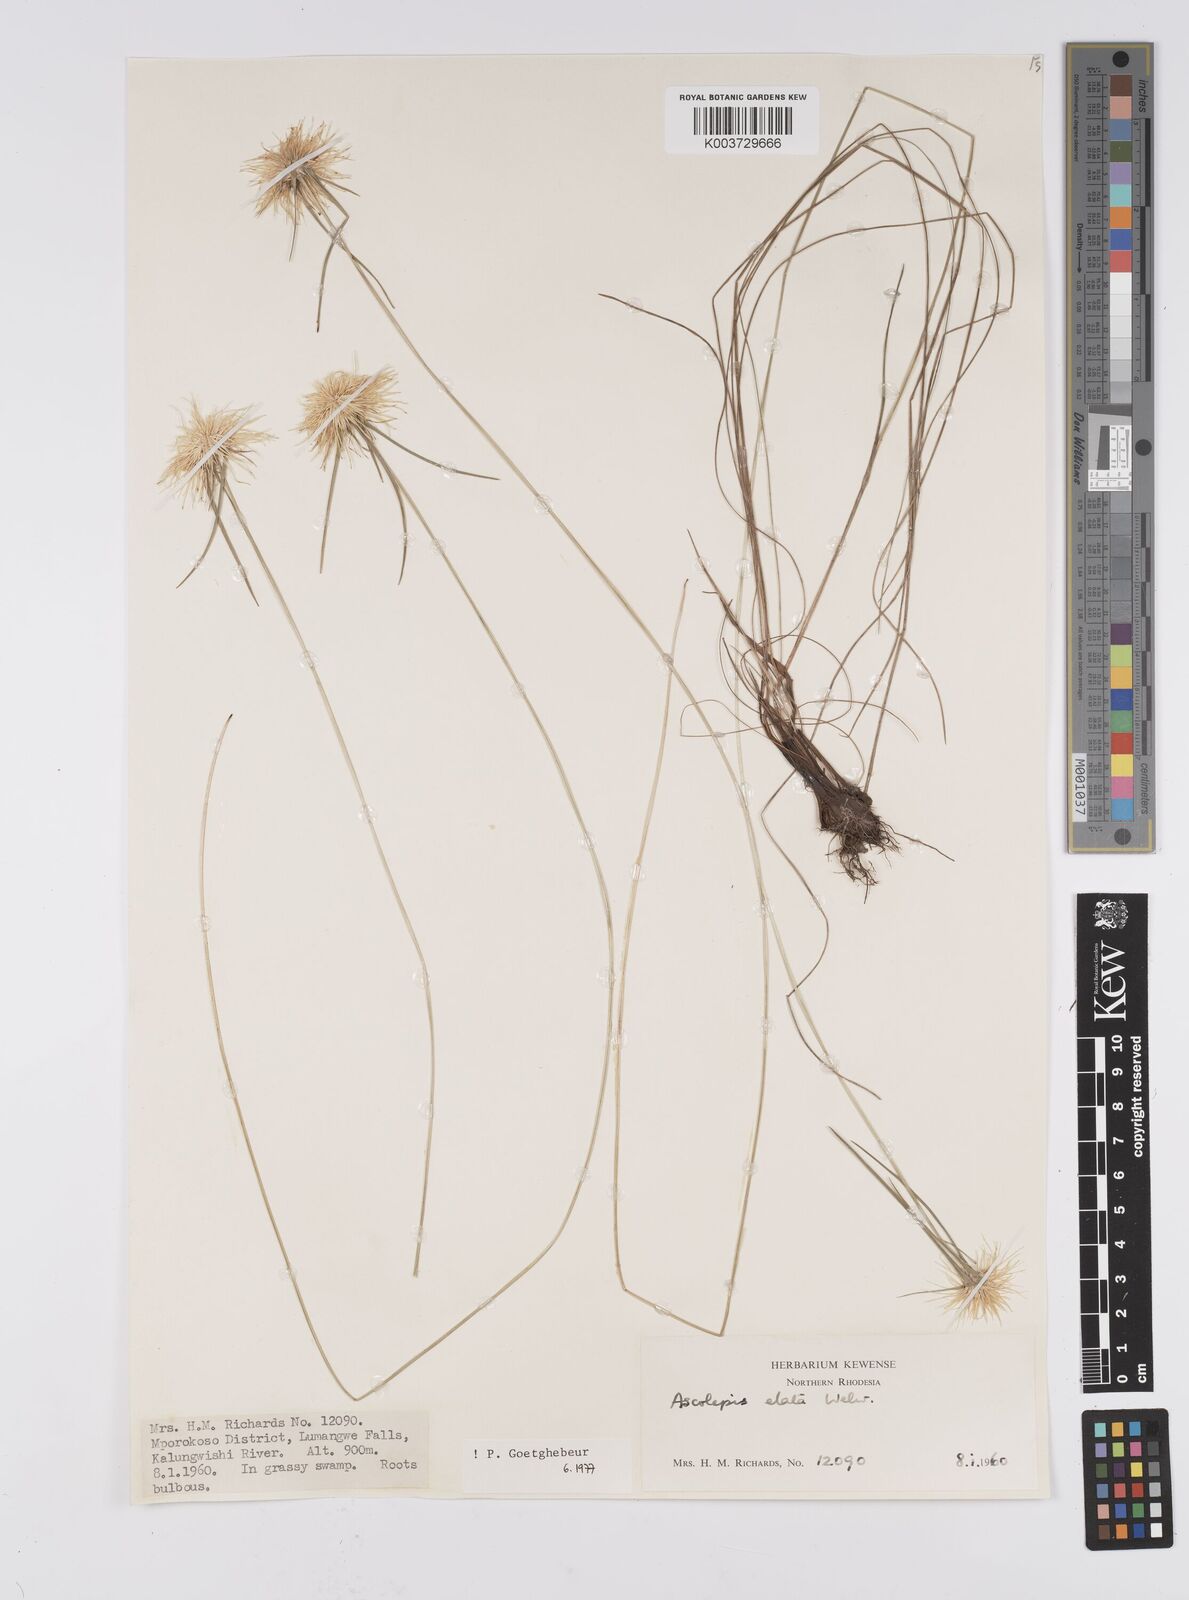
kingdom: Plantae
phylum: Tracheophyta
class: Liliopsida
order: Poales
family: Cyperaceae
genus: Cyperus
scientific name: Cyperus
